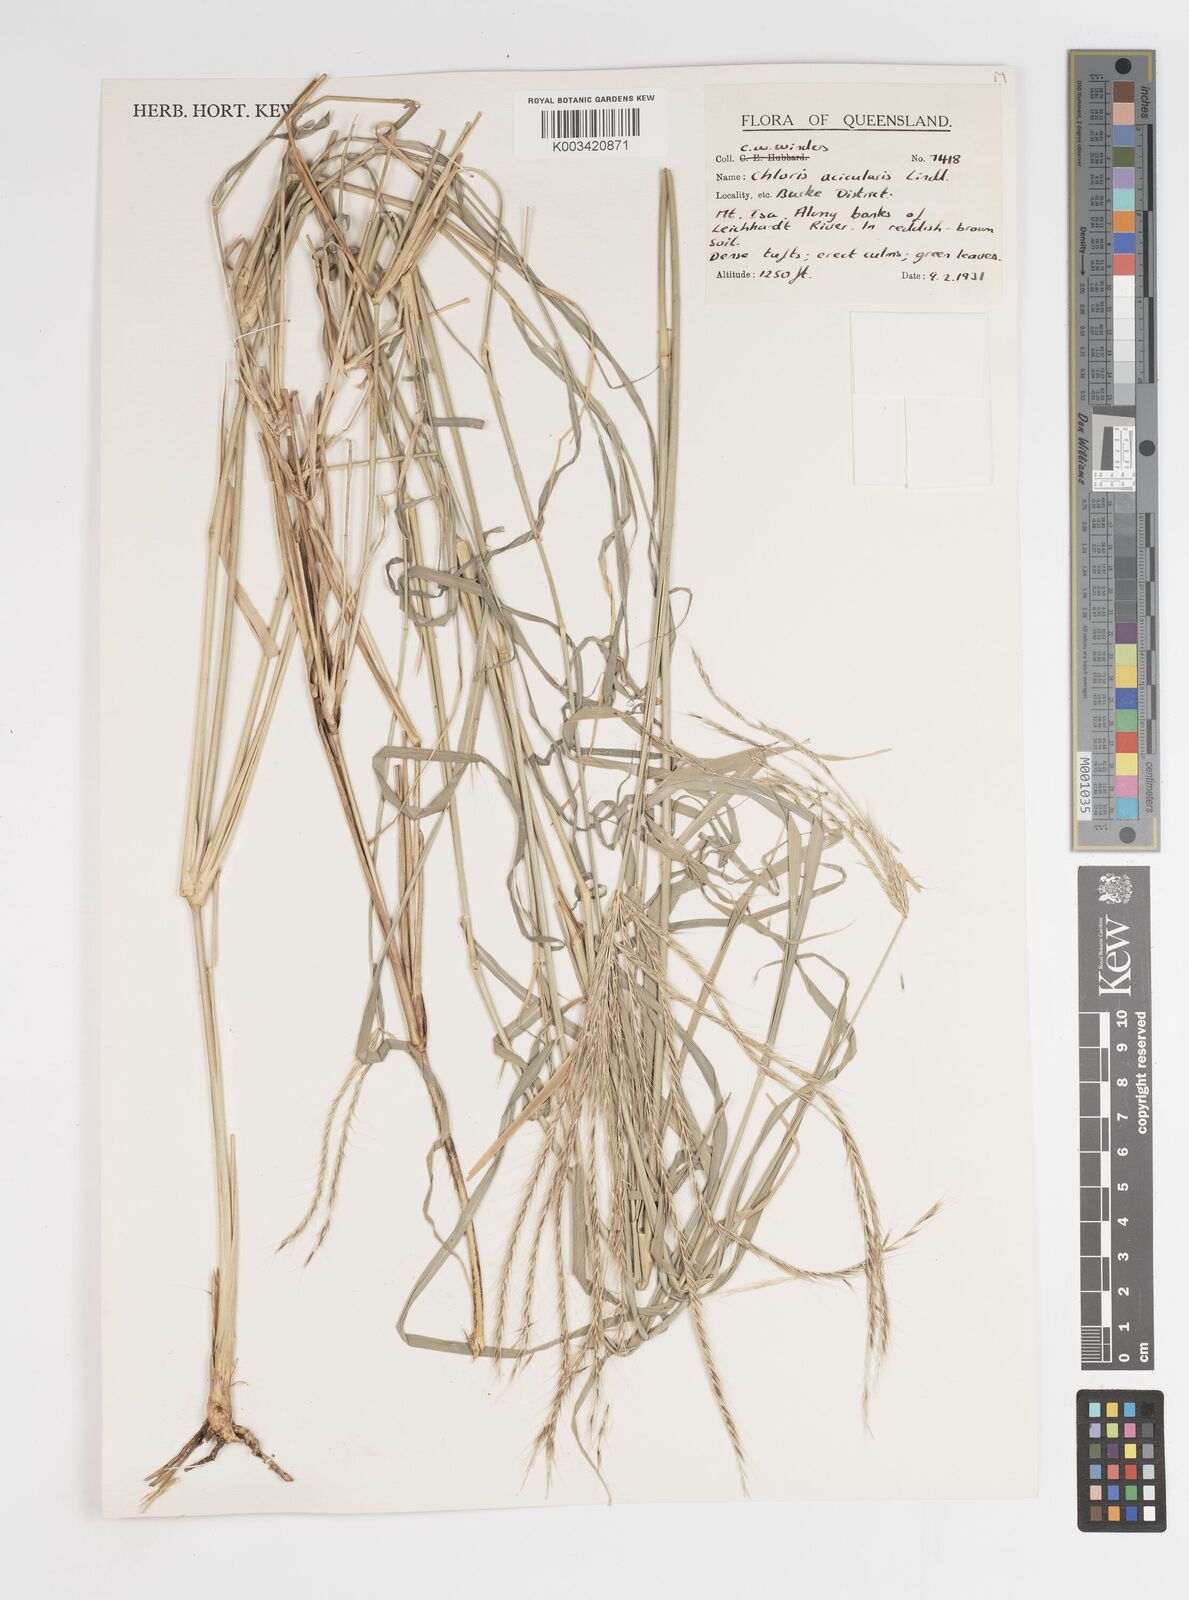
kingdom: Plantae
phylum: Tracheophyta
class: Liliopsida
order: Poales
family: Poaceae
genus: Enteropogon
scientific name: Enteropogon acicularis
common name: Curly windmill grass
